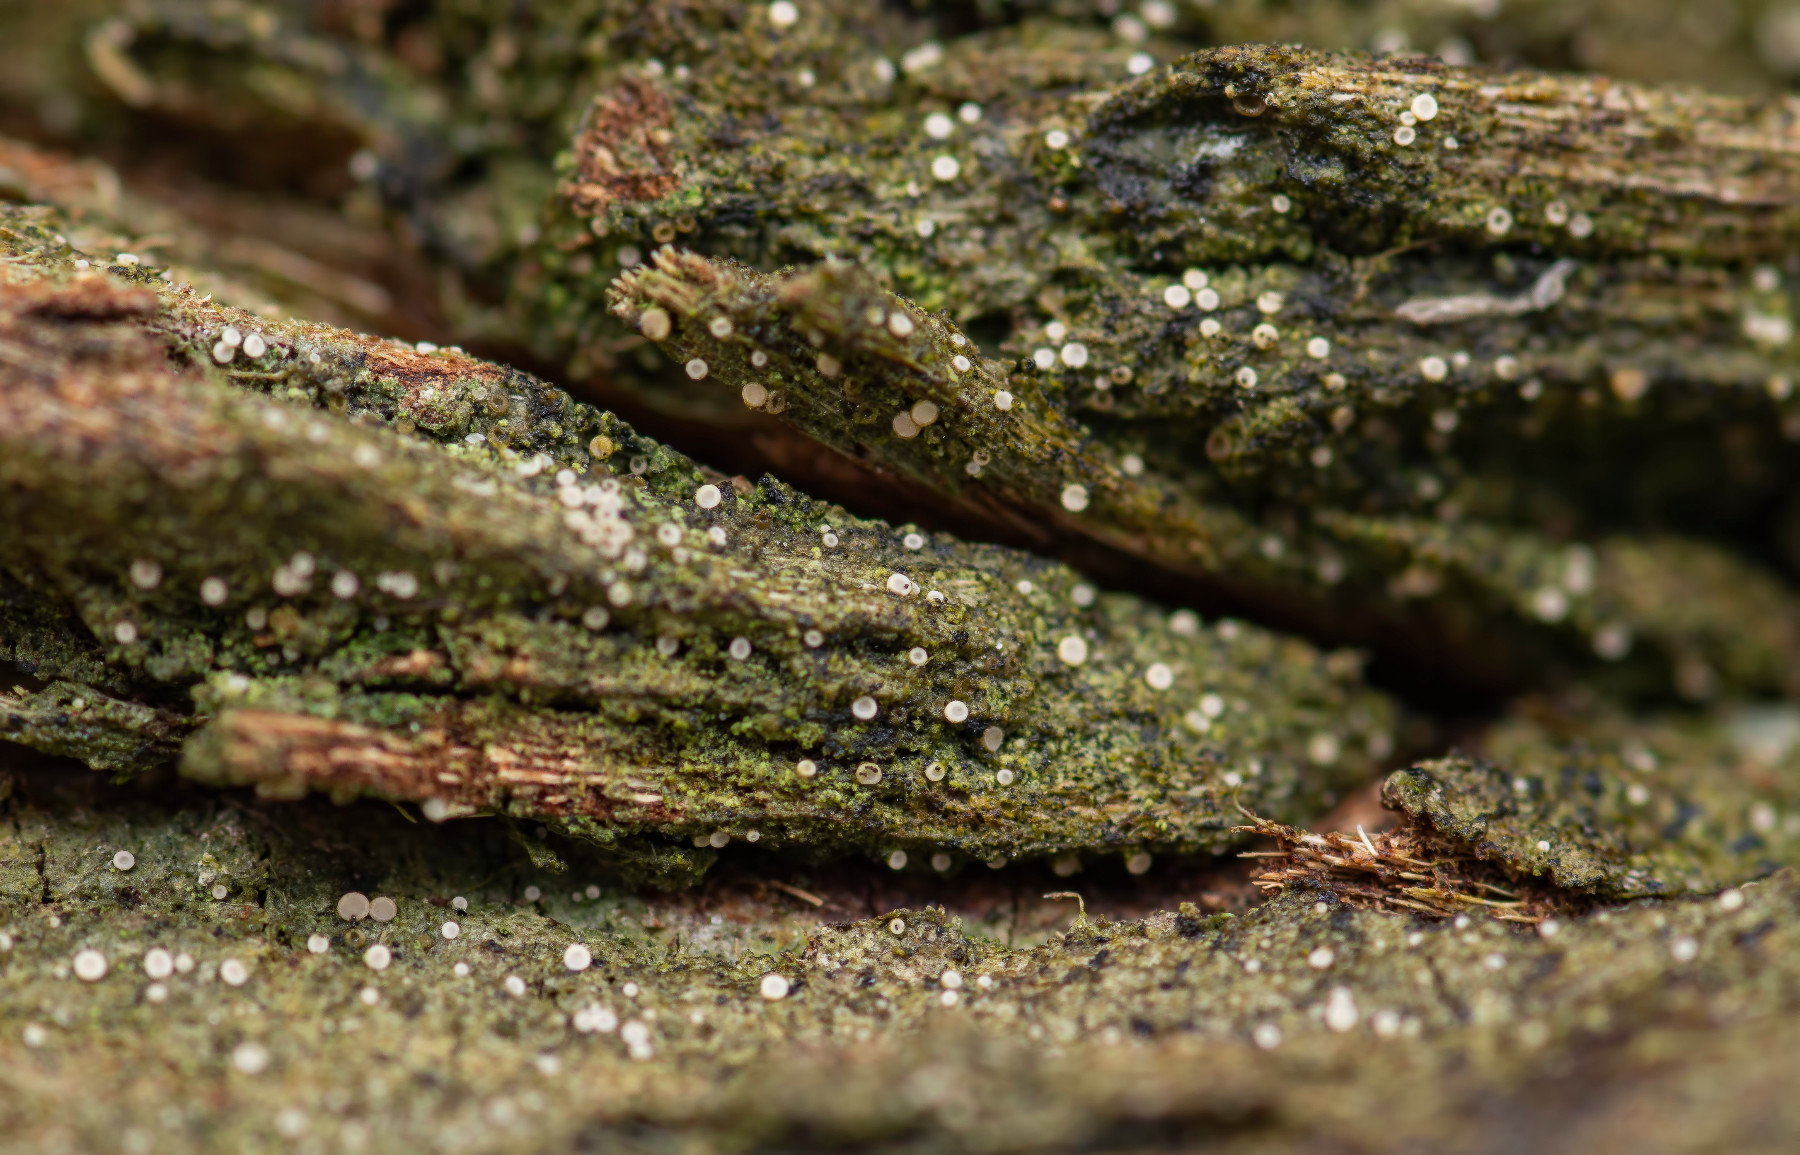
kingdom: Fungi
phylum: Ascomycota
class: Lecanoromycetes
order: Ostropales
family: Coenogoniaceae
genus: Coenogonium
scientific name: Coenogonium pineti
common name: liden vokslav
